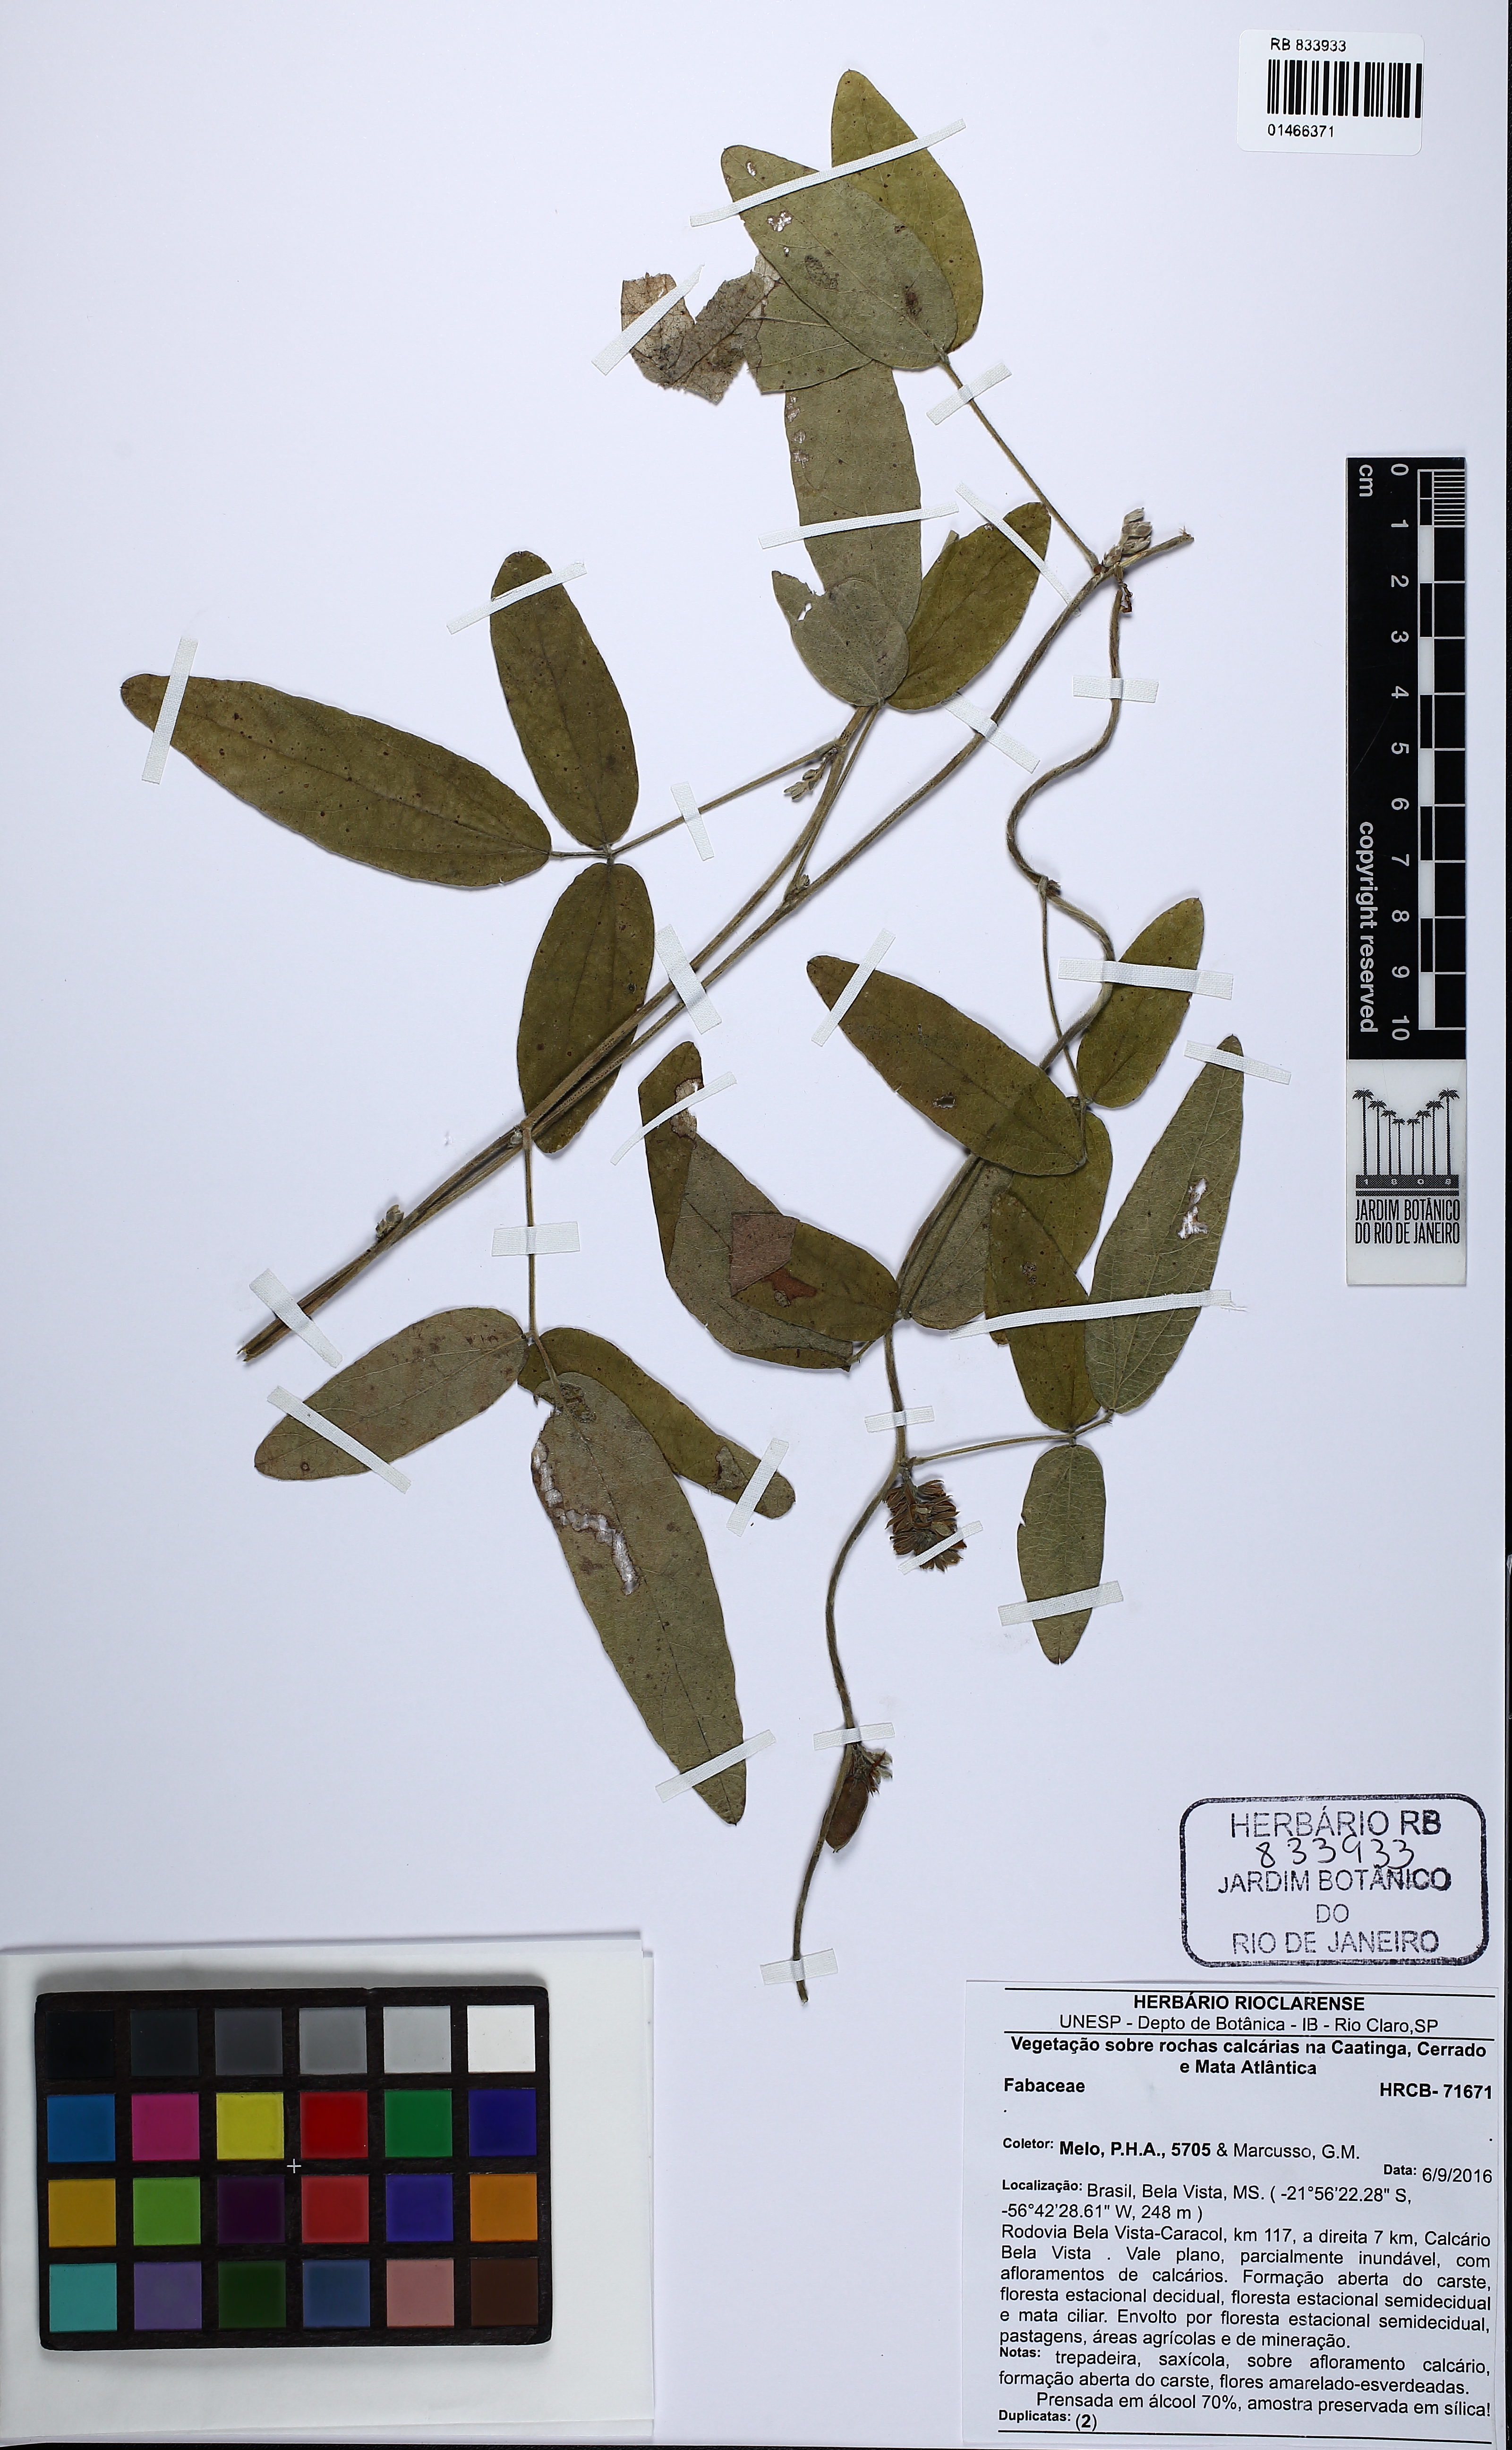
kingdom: Plantae
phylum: Tracheophyta
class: Magnoliopsida
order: Fabales
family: Fabaceae
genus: Galactia
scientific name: Galactia
